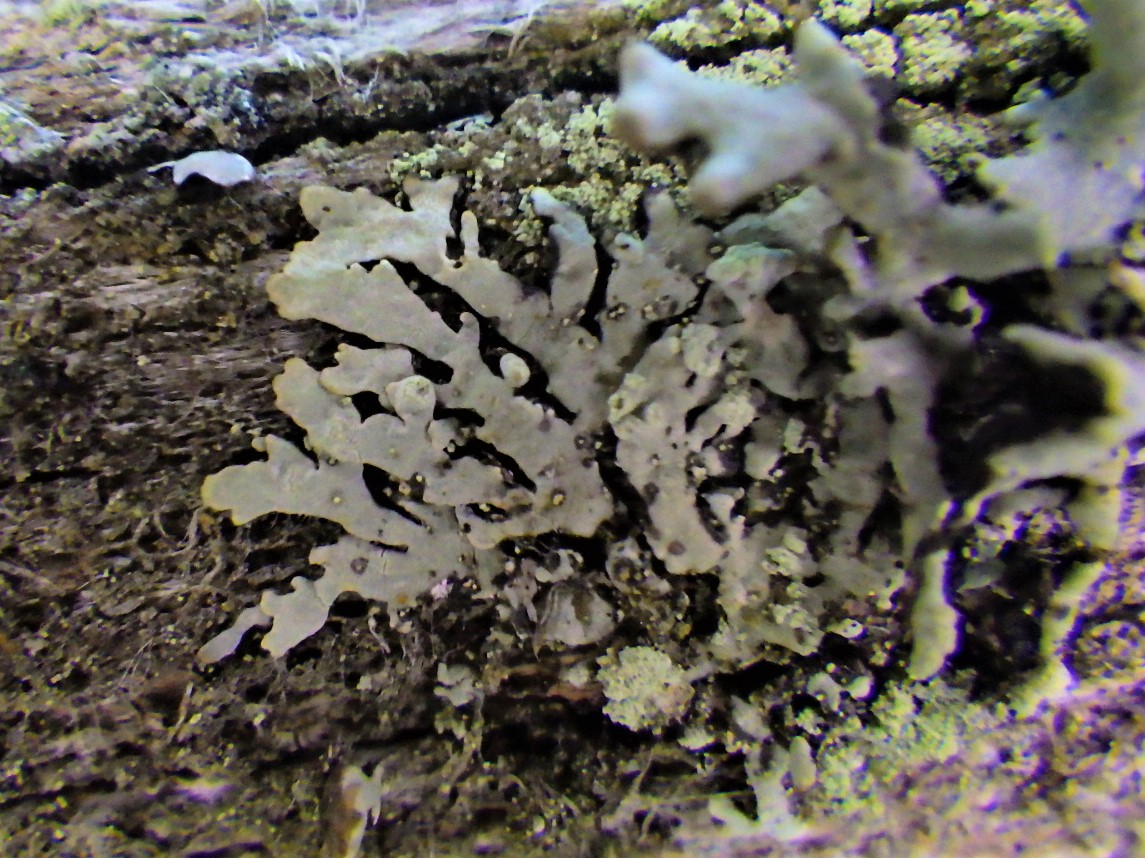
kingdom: Fungi
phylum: Ascomycota
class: Lecanoromycetes
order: Lecanorales
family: Parmeliaceae
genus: Parmeliopsis
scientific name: Parmeliopsis ambigua
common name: gul stolpelav
